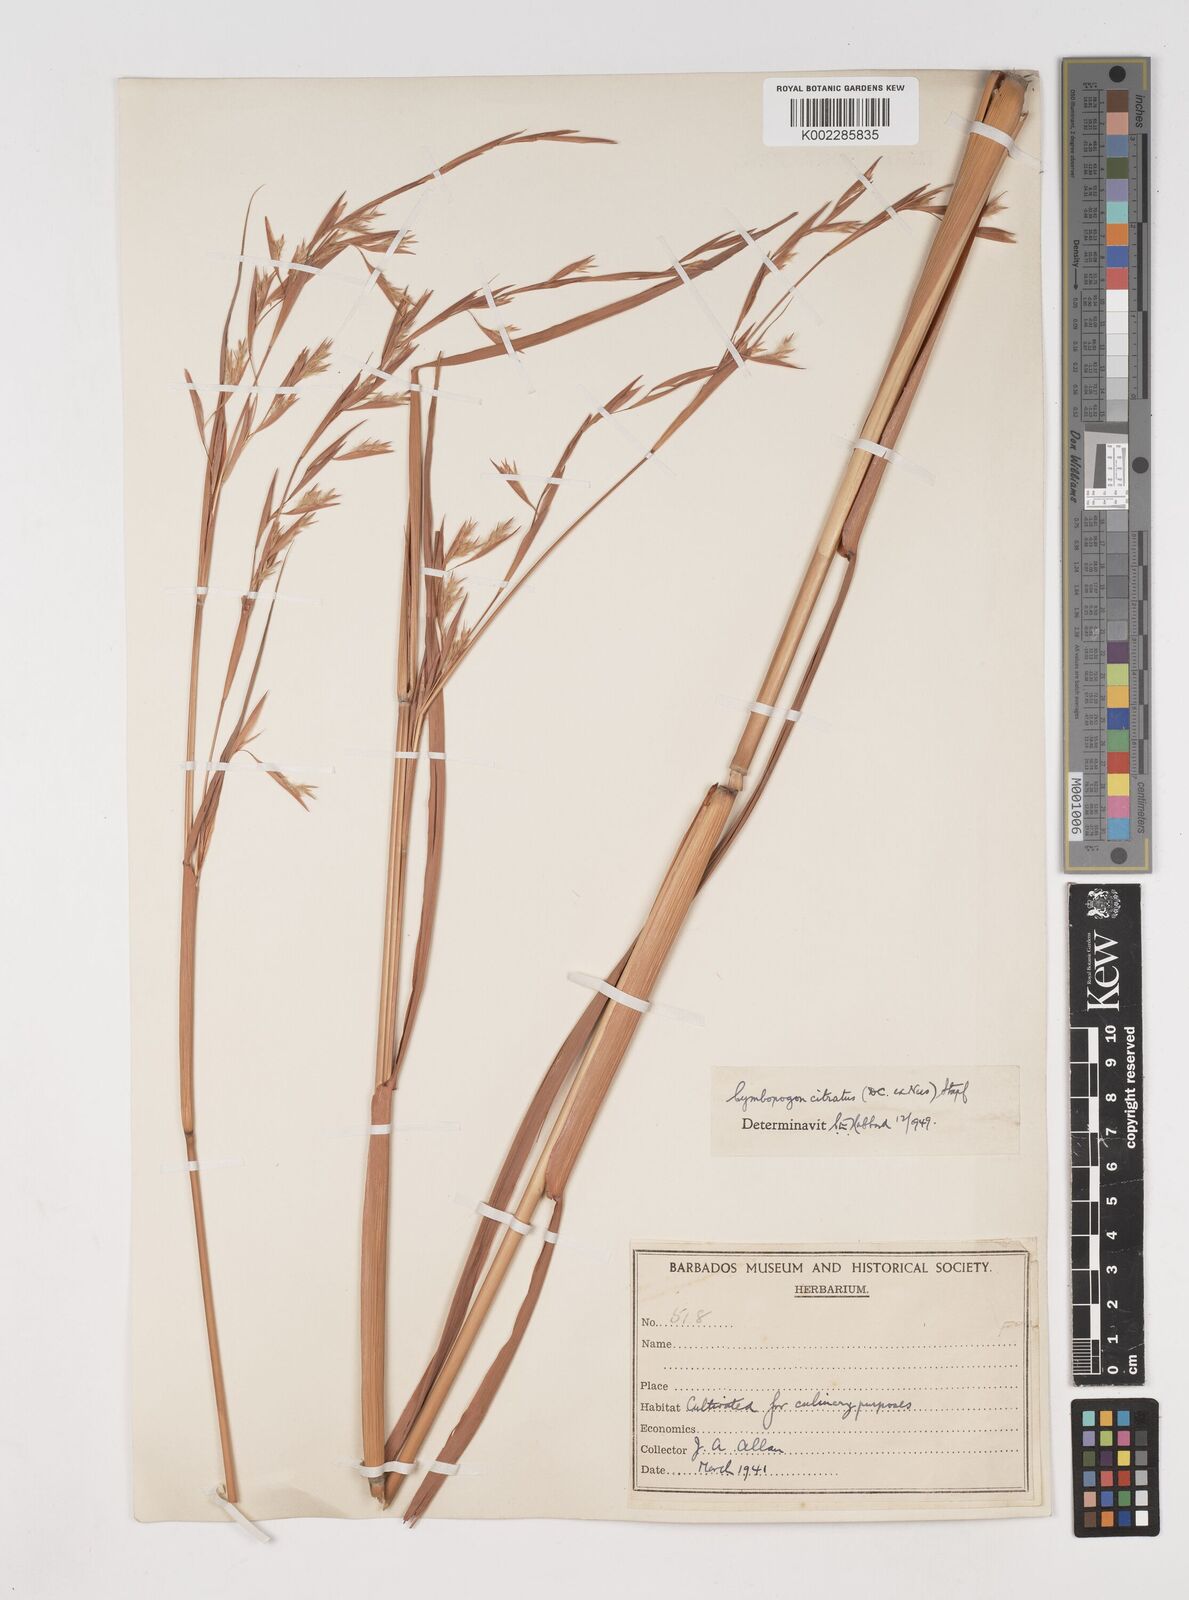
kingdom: Plantae
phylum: Tracheophyta
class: Liliopsida
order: Poales
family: Poaceae
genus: Cymbopogon
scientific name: Cymbopogon citratus
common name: Lemon grass
